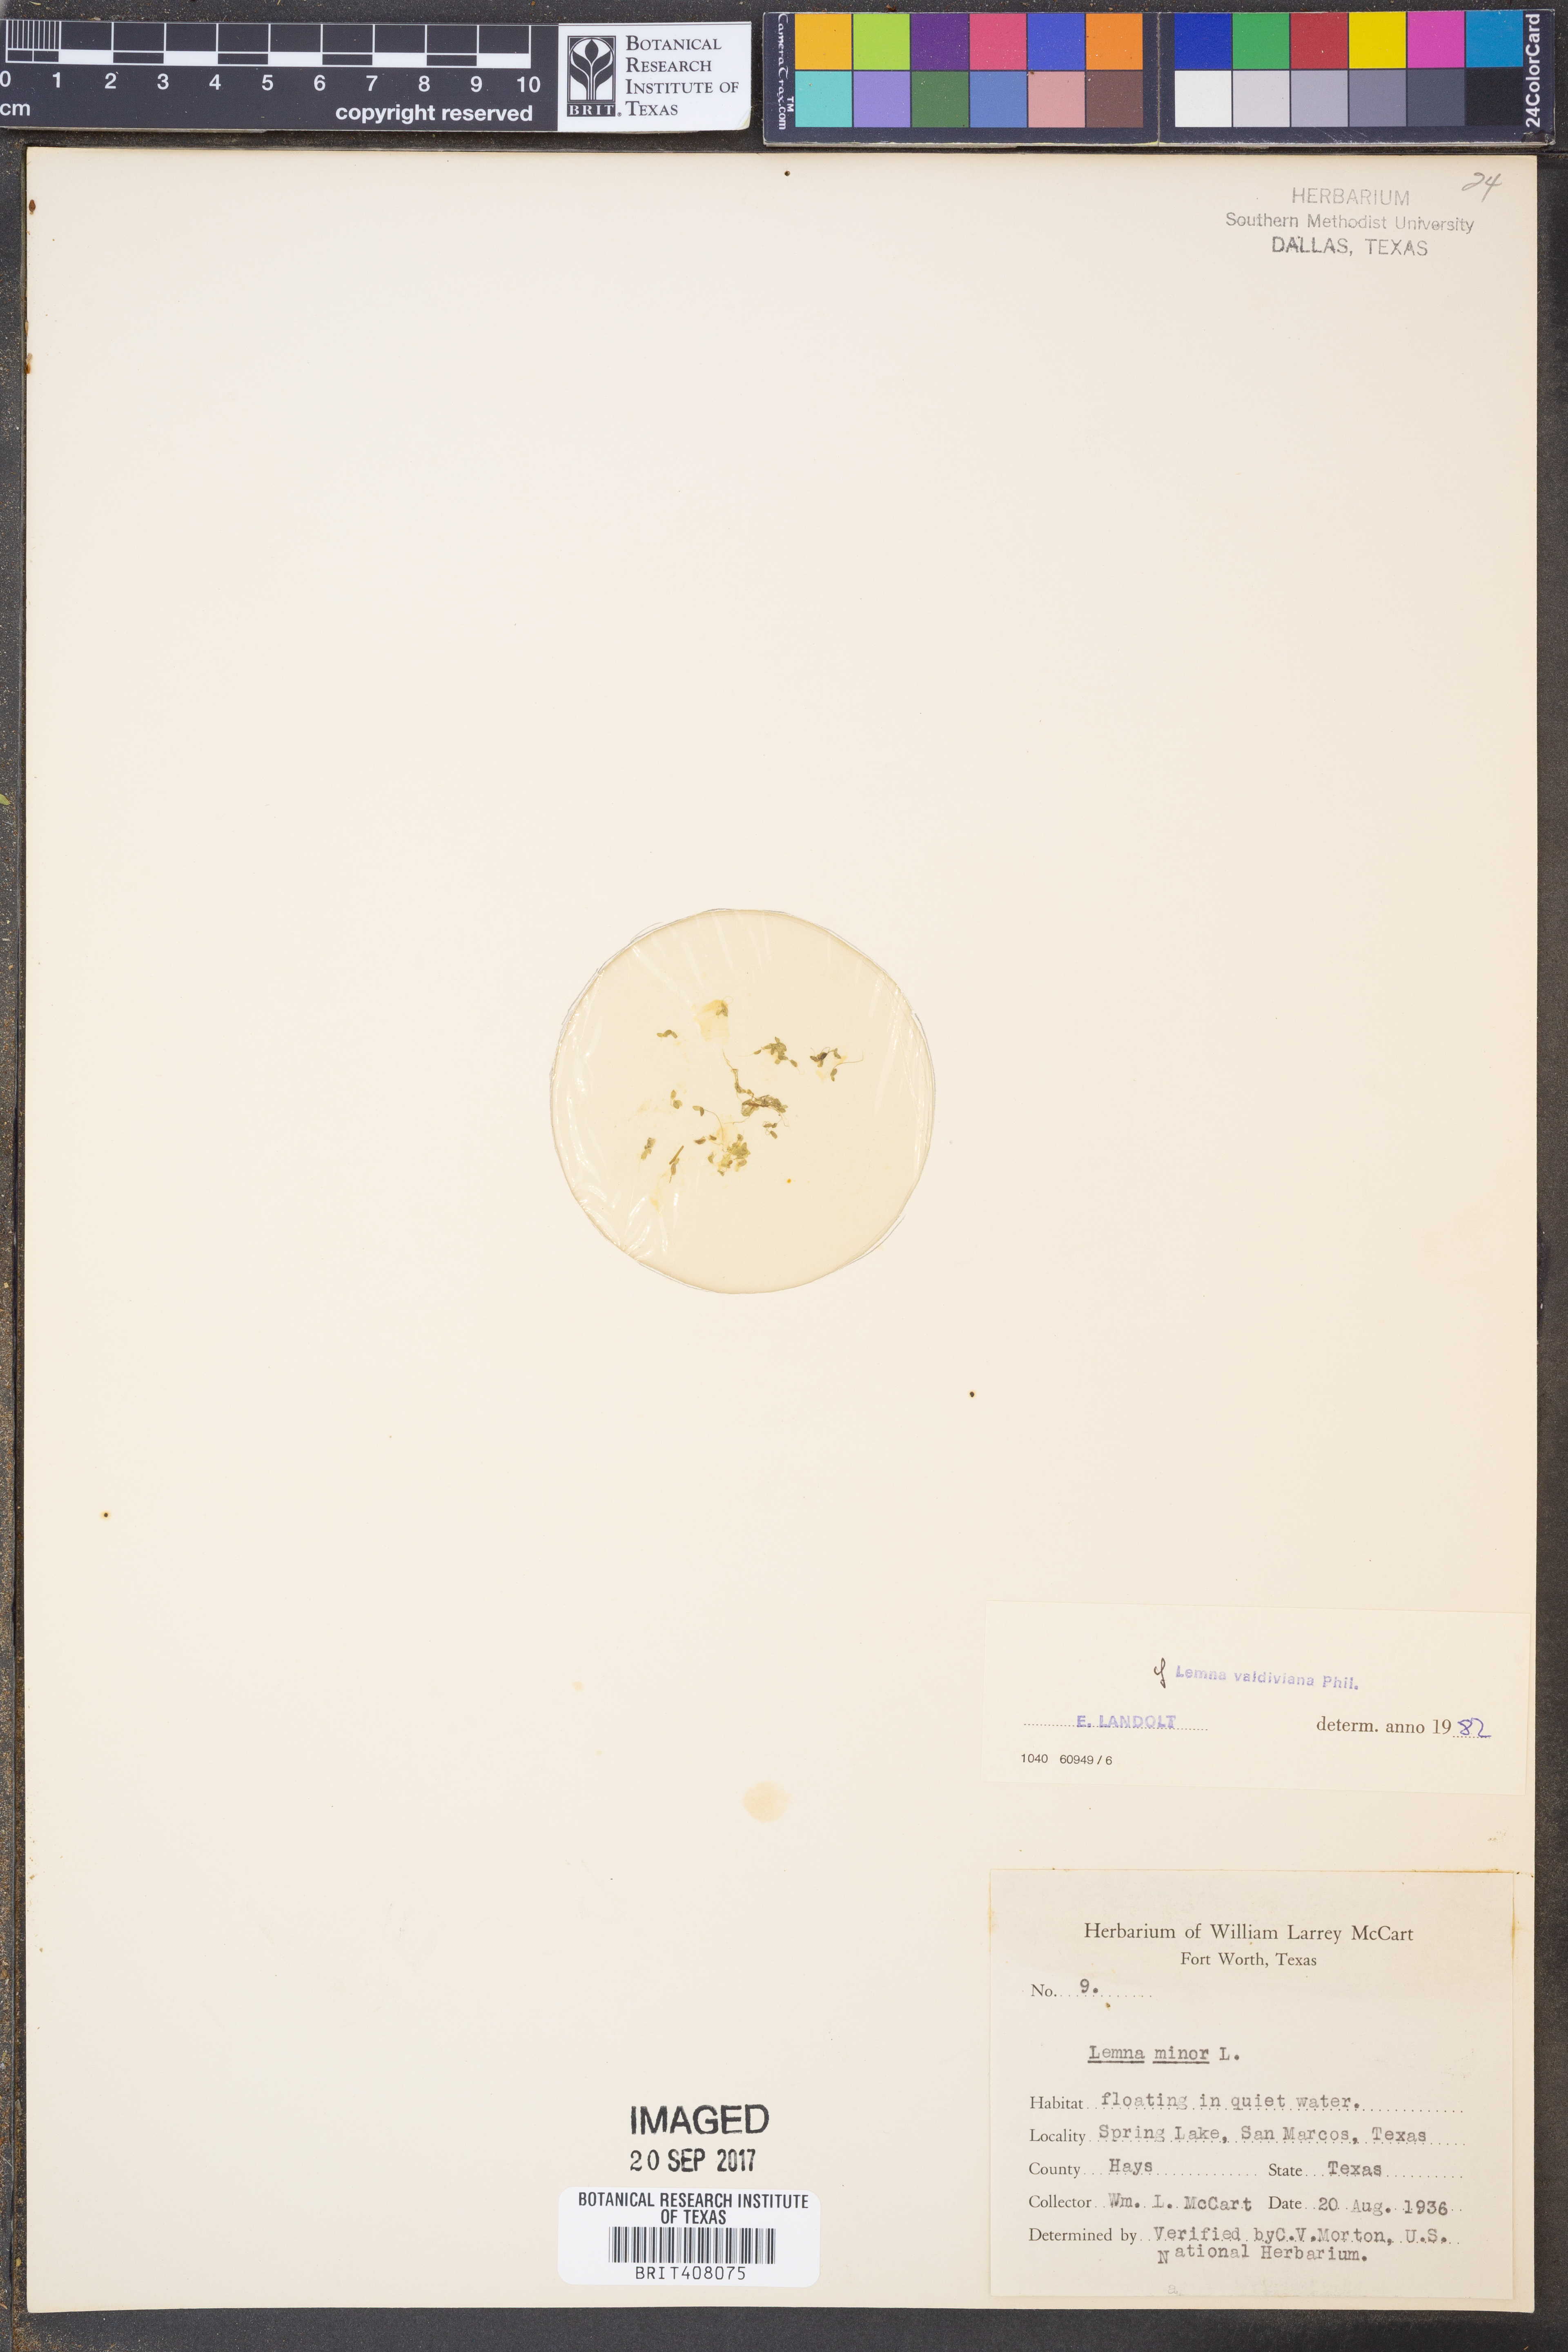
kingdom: Plantae
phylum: Tracheophyta
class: Liliopsida
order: Alismatales
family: Araceae
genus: Lemna
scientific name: Lemna minor
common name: Common duckweed
